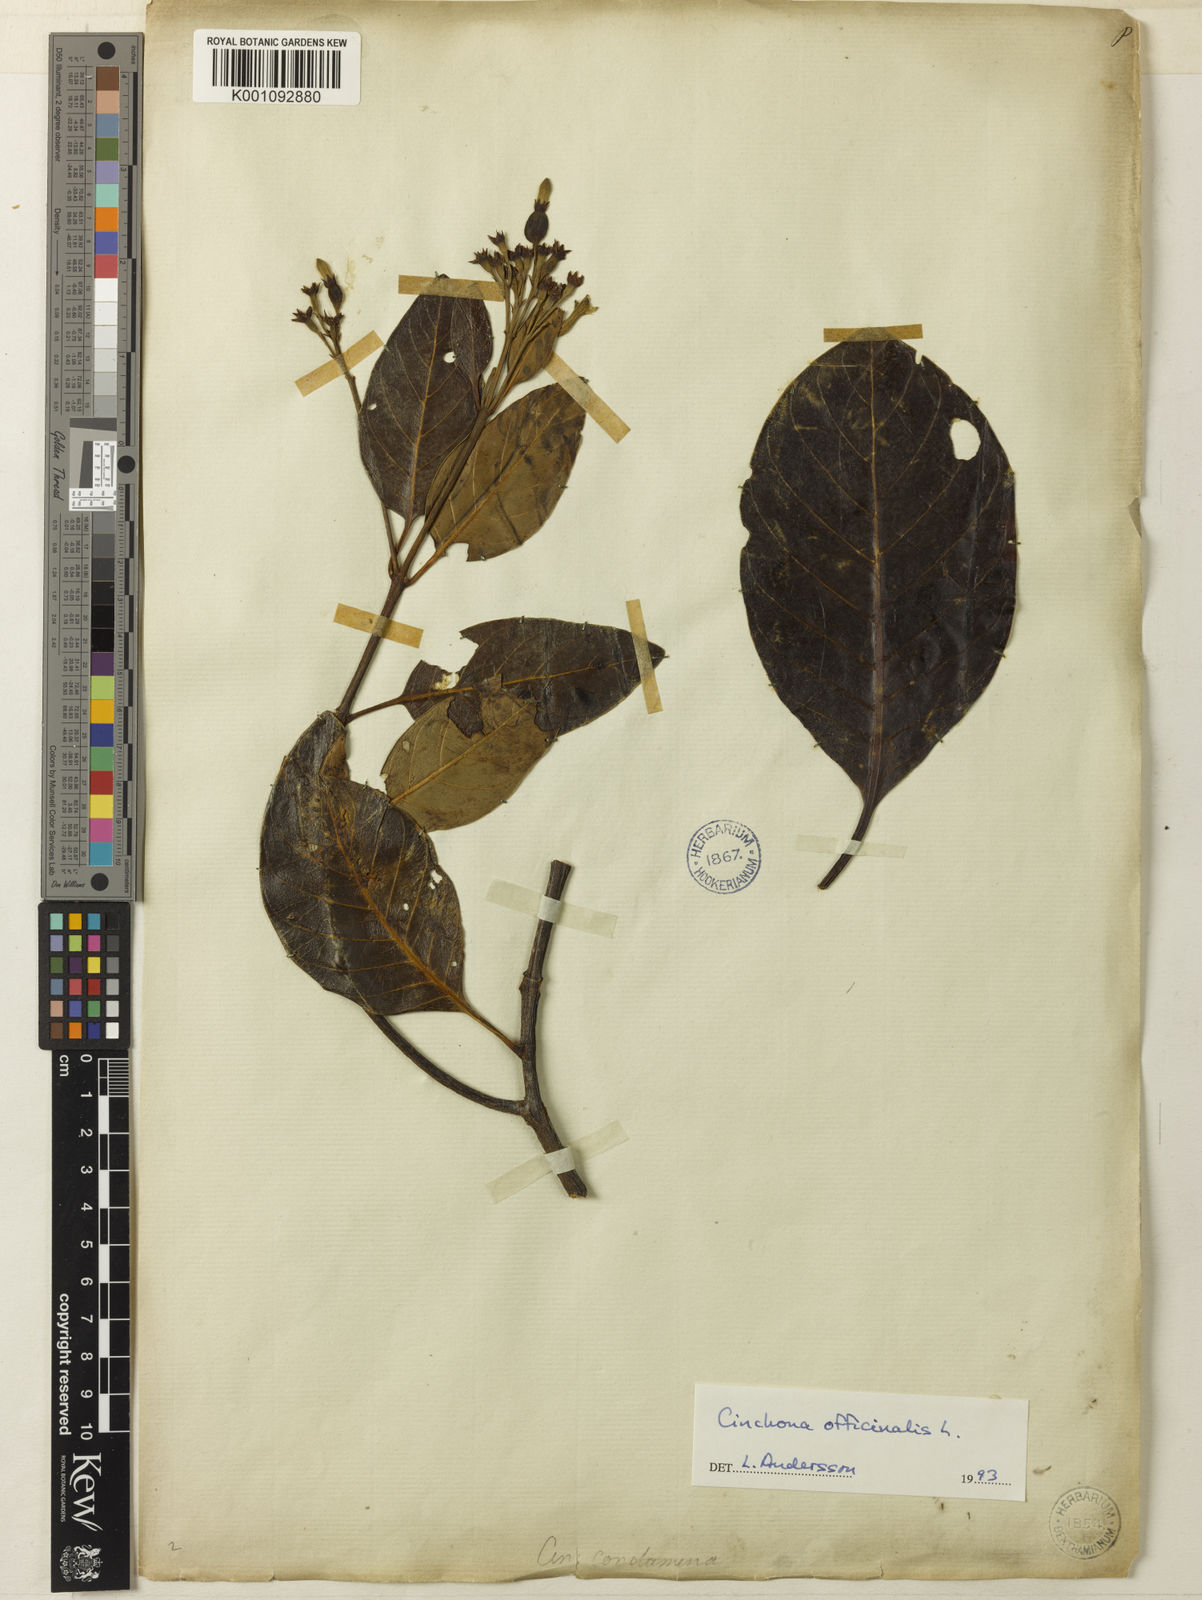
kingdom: Plantae
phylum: Tracheophyta
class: Magnoliopsida
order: Gentianales
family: Rubiaceae
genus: Cinchona
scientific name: Cinchona officinalis
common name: Lojabark
